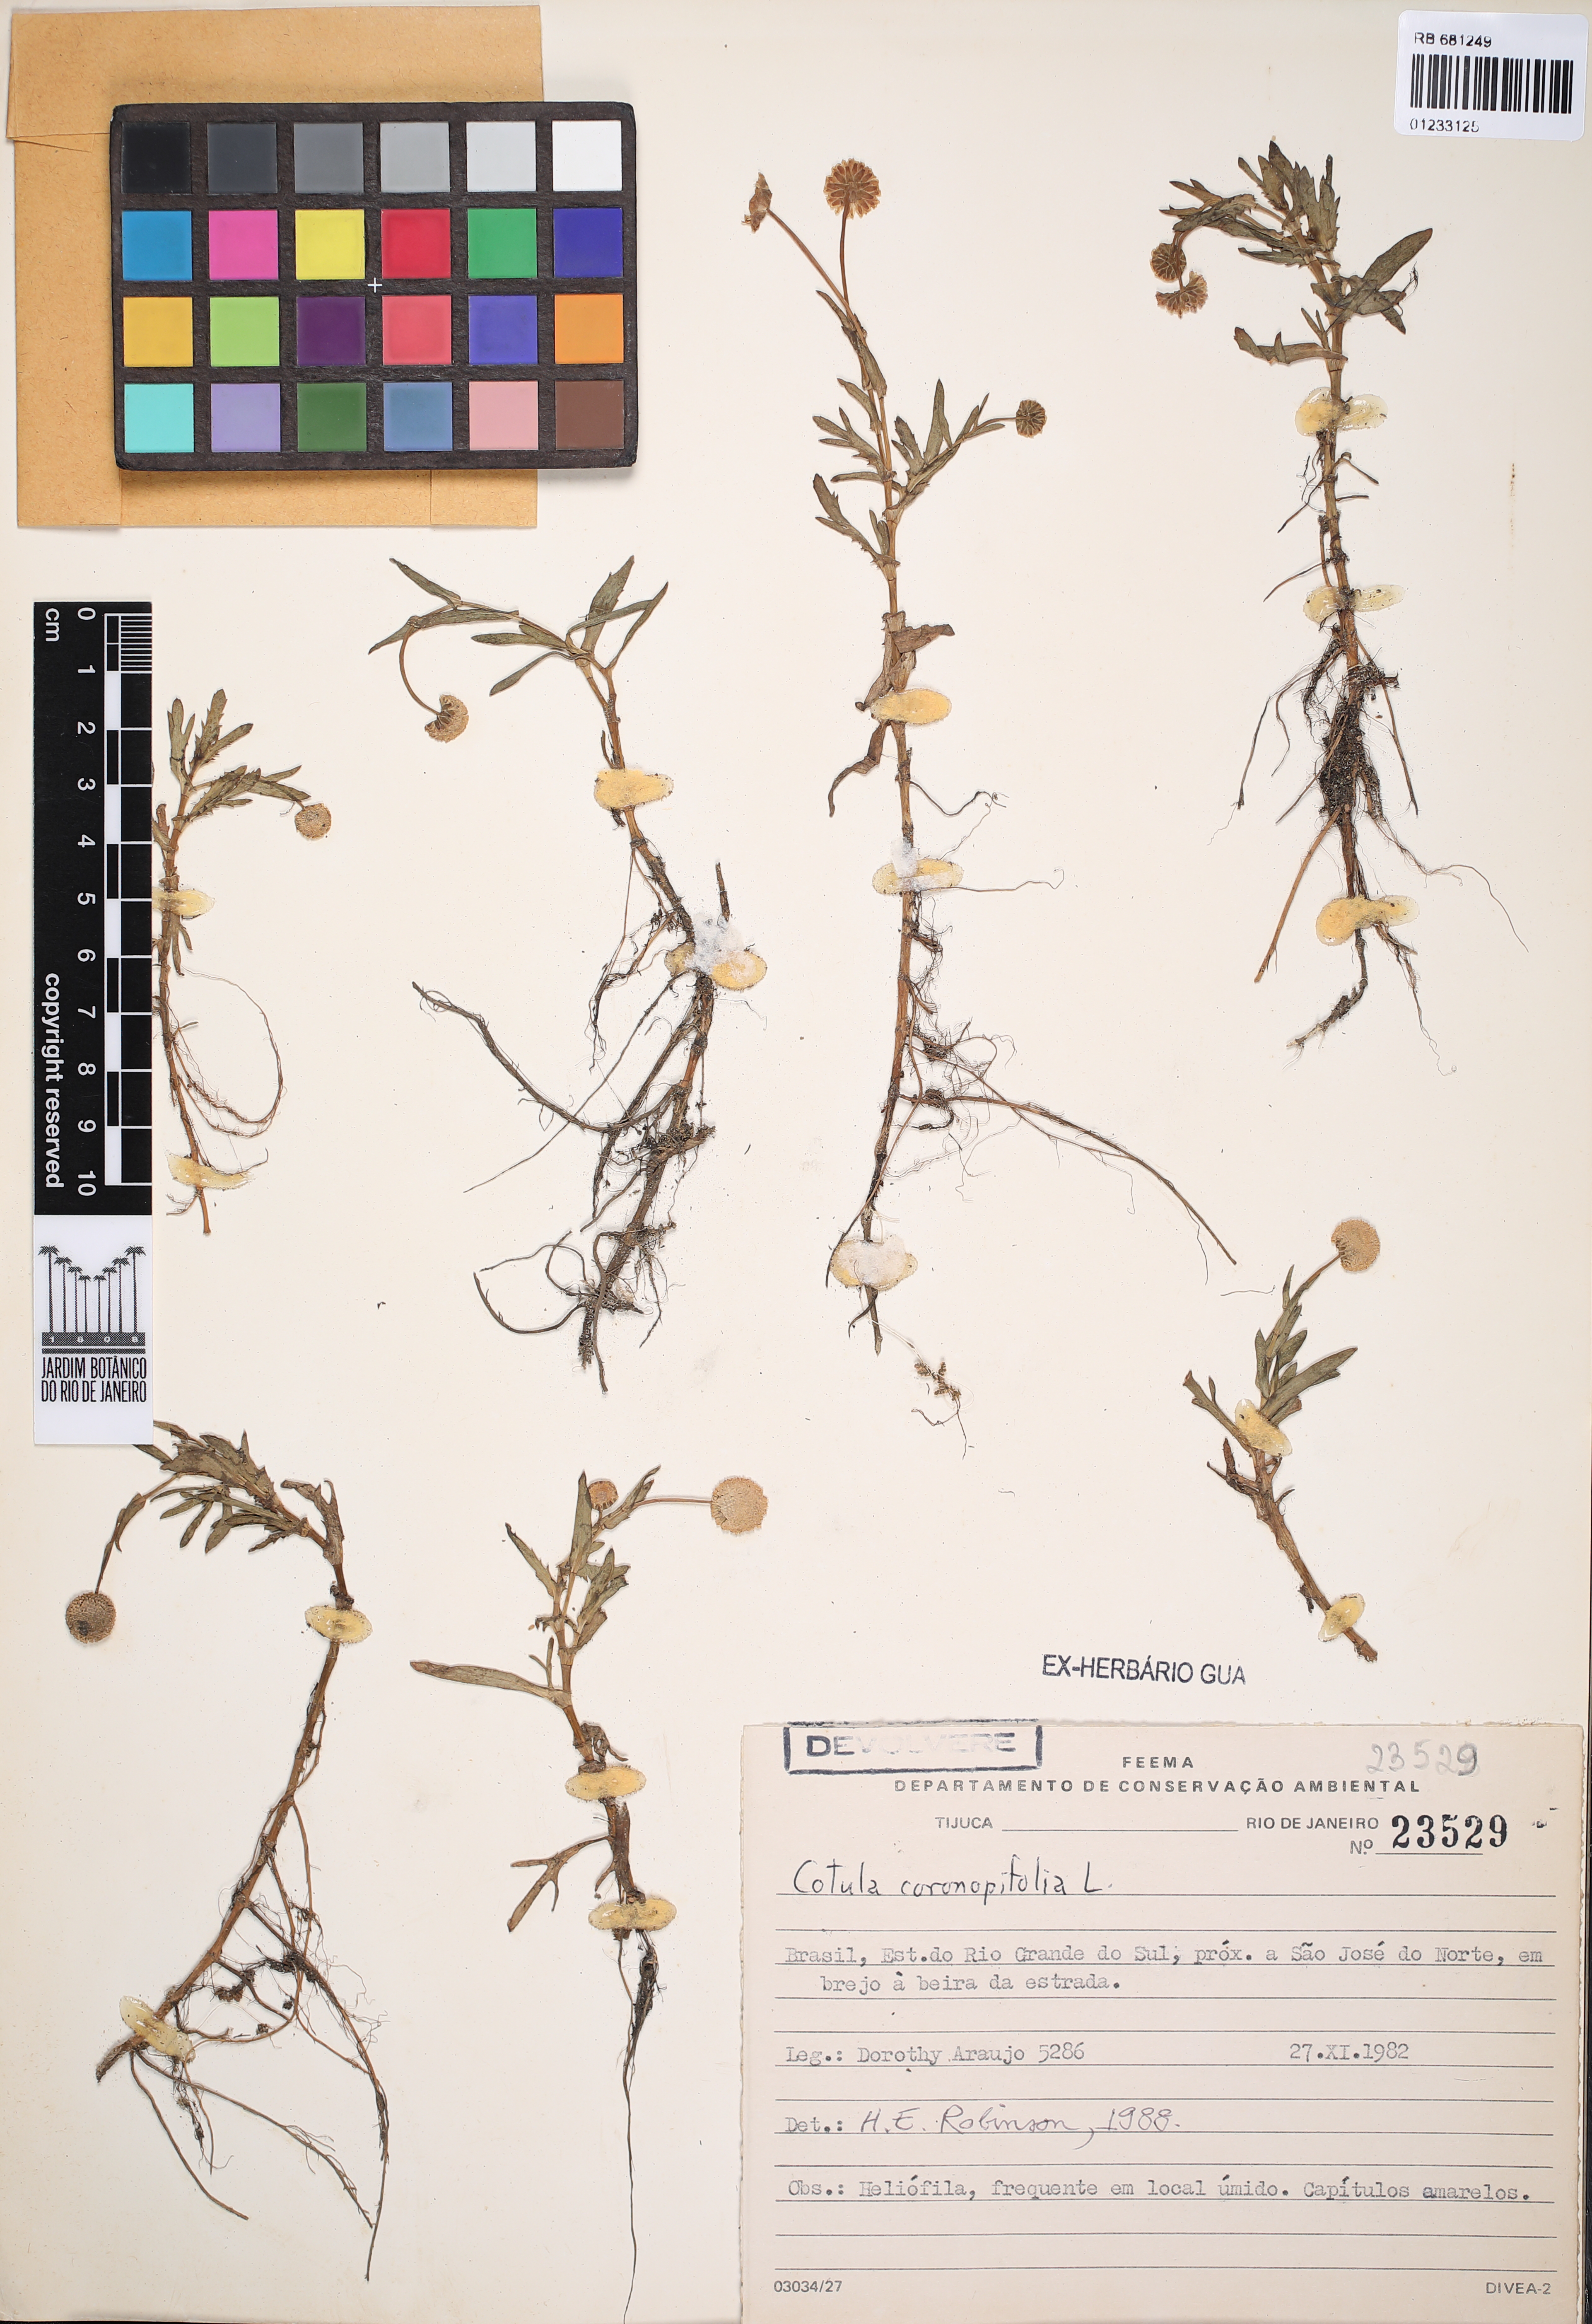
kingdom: Plantae
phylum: Tracheophyta
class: Magnoliopsida
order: Asterales
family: Asteraceae
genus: Cotula
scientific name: Cotula coronopifolia
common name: Buttonweed
